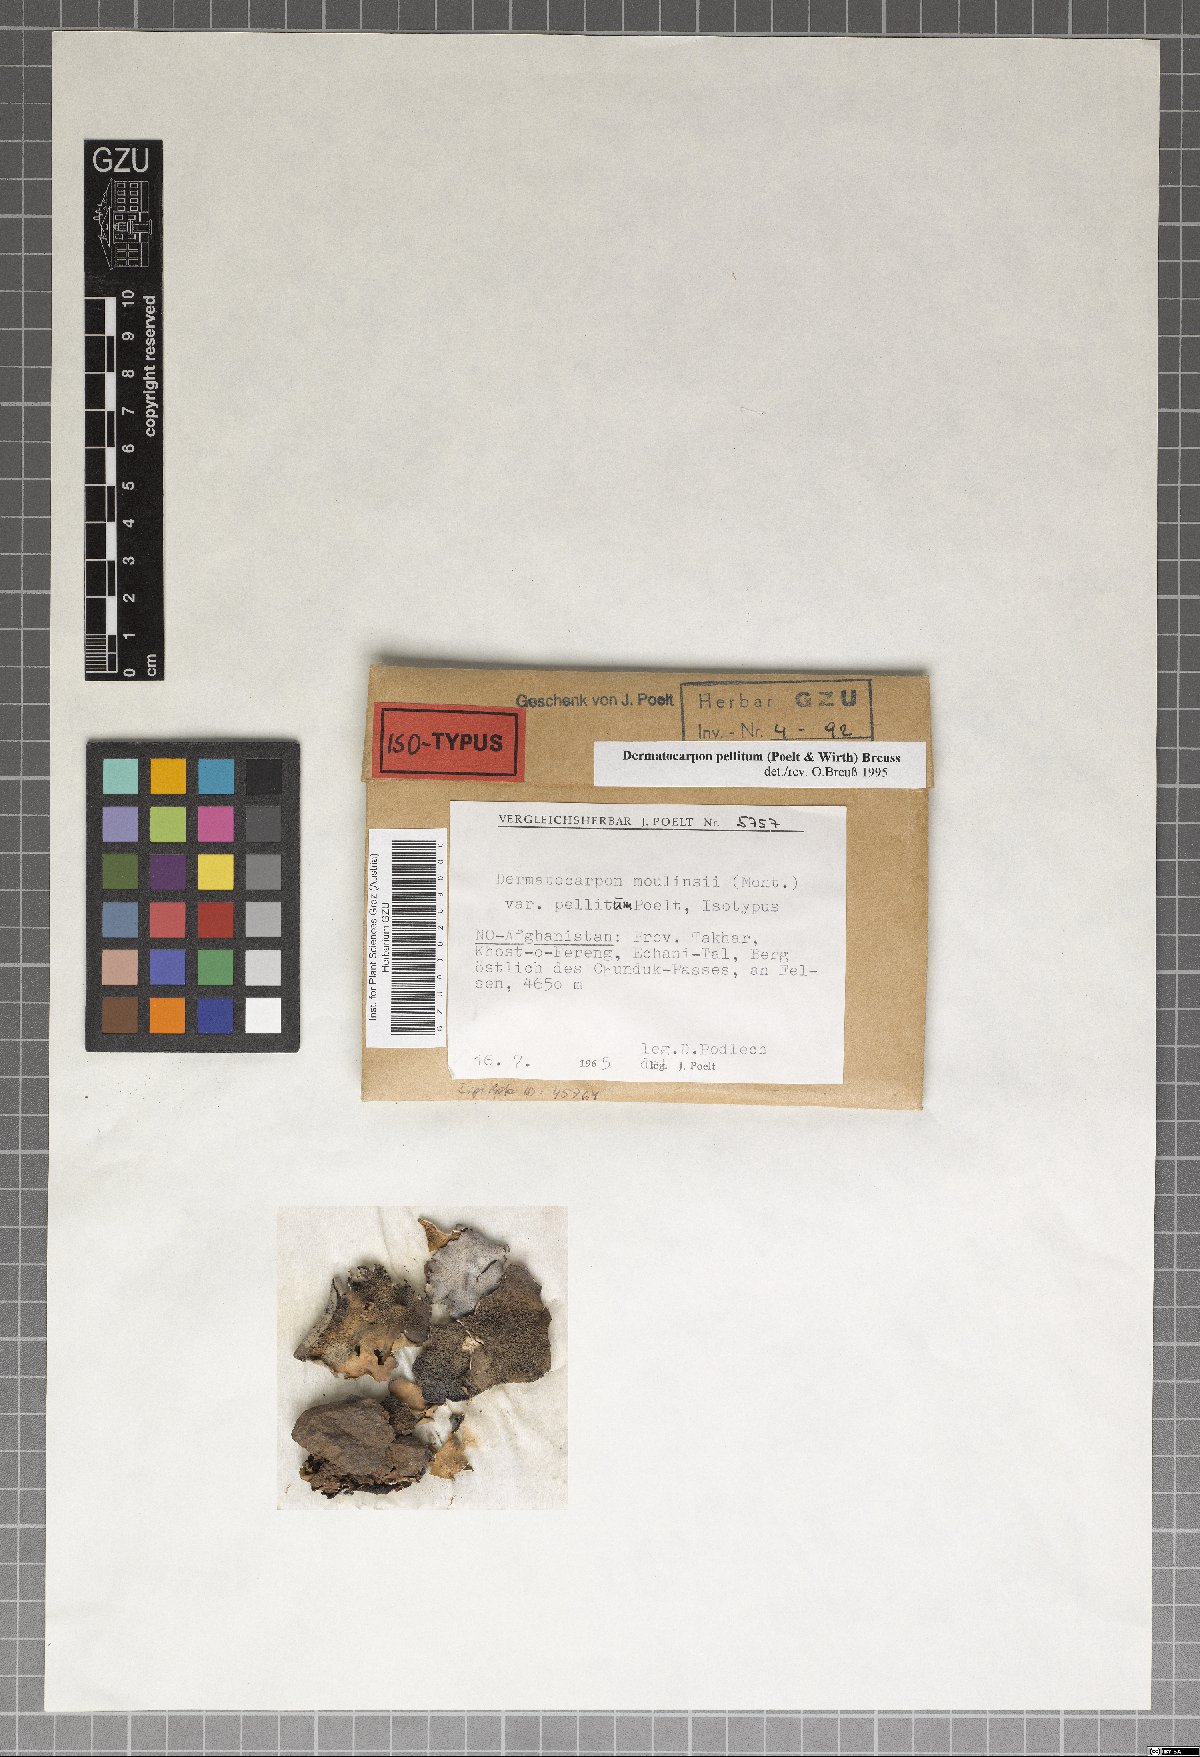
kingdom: Fungi
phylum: Ascomycota
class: Eurotiomycetes
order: Verrucariales
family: Verrucariaceae
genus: Dermatocarpon
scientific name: Dermatocarpon moulinsii
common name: Shag stippleback lichen
